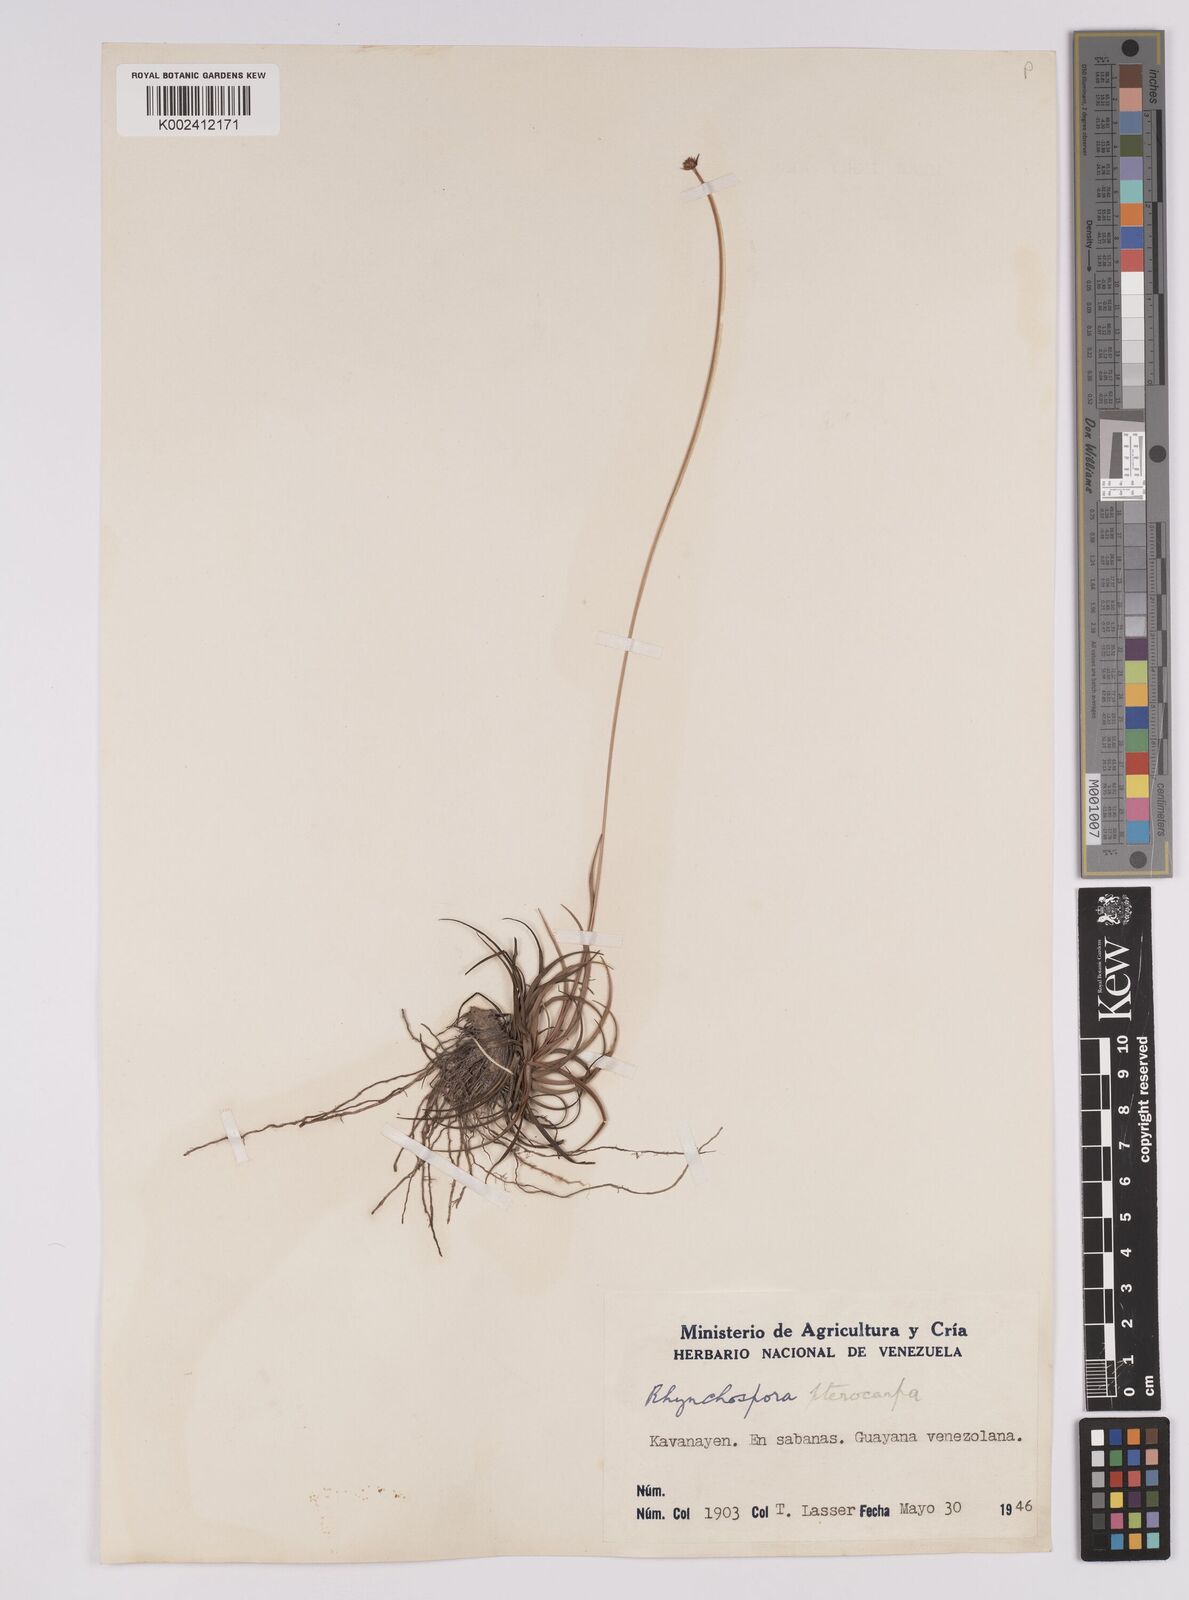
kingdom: Plantae
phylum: Tracheophyta
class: Liliopsida
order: Poales
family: Cyperaceae
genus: Rhynchospora
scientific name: Rhynchospora barbata
